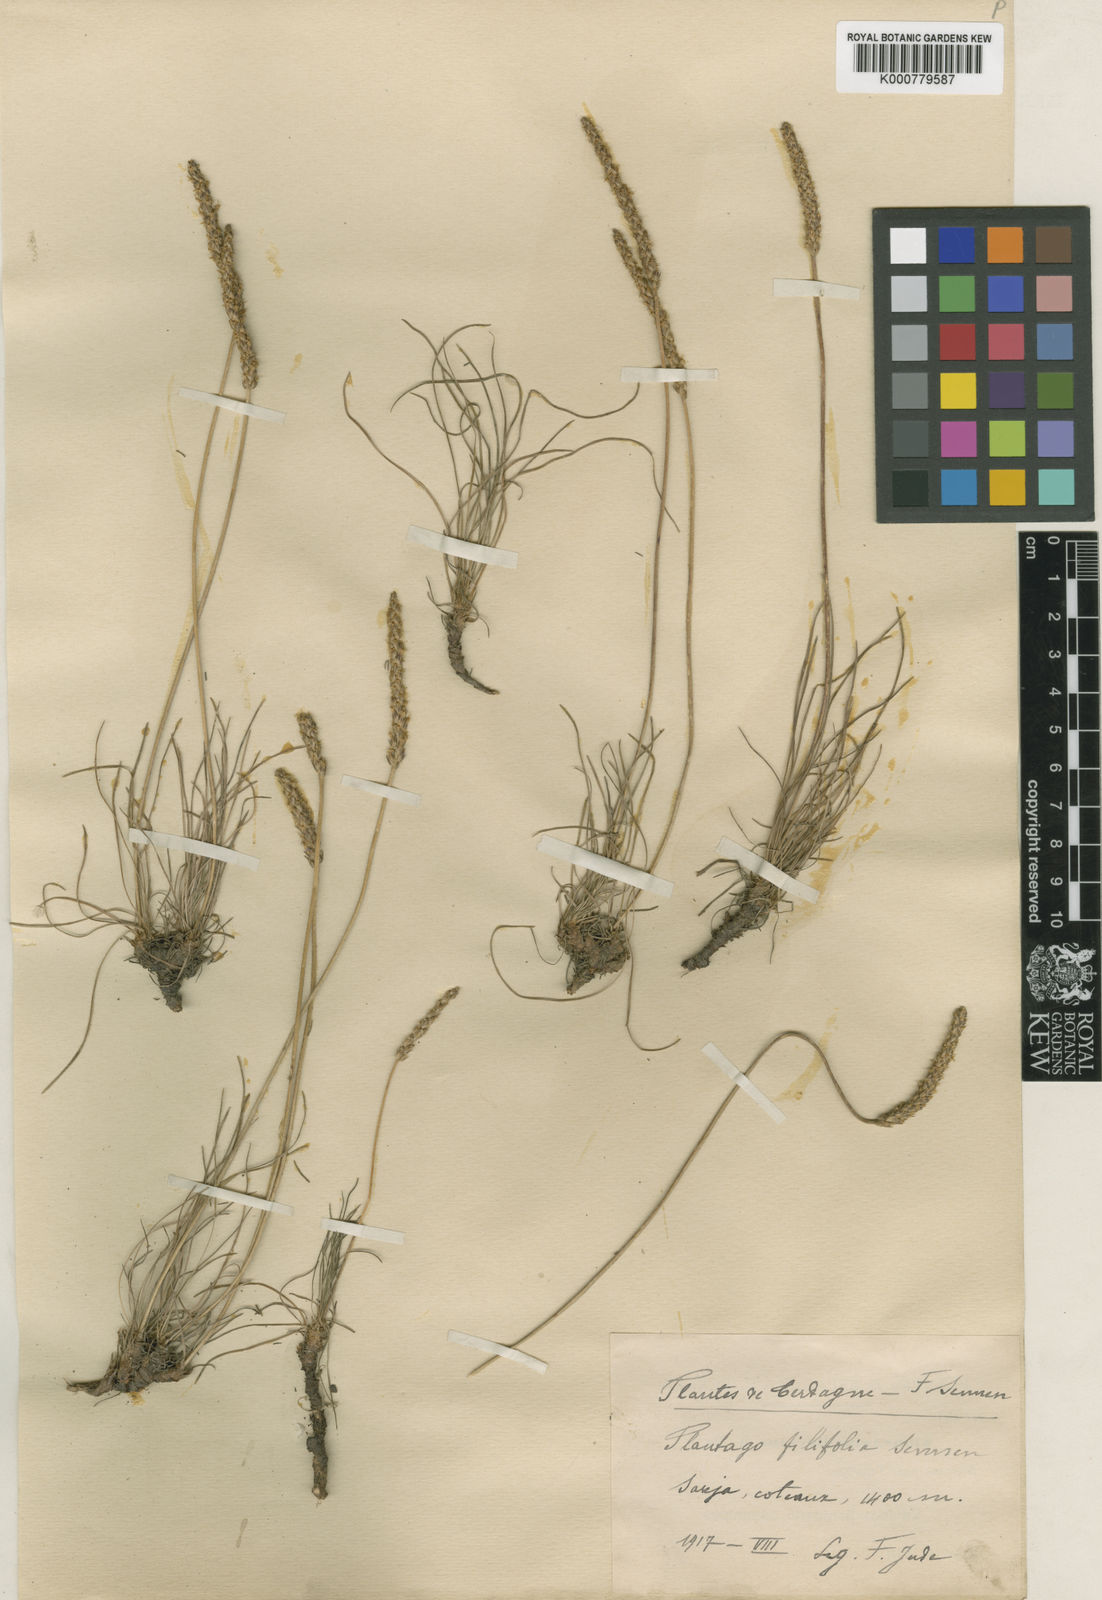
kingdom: Plantae
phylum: Tracheophyta
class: Magnoliopsida
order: Lamiales
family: Plantaginaceae
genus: Plantago
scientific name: Plantago
